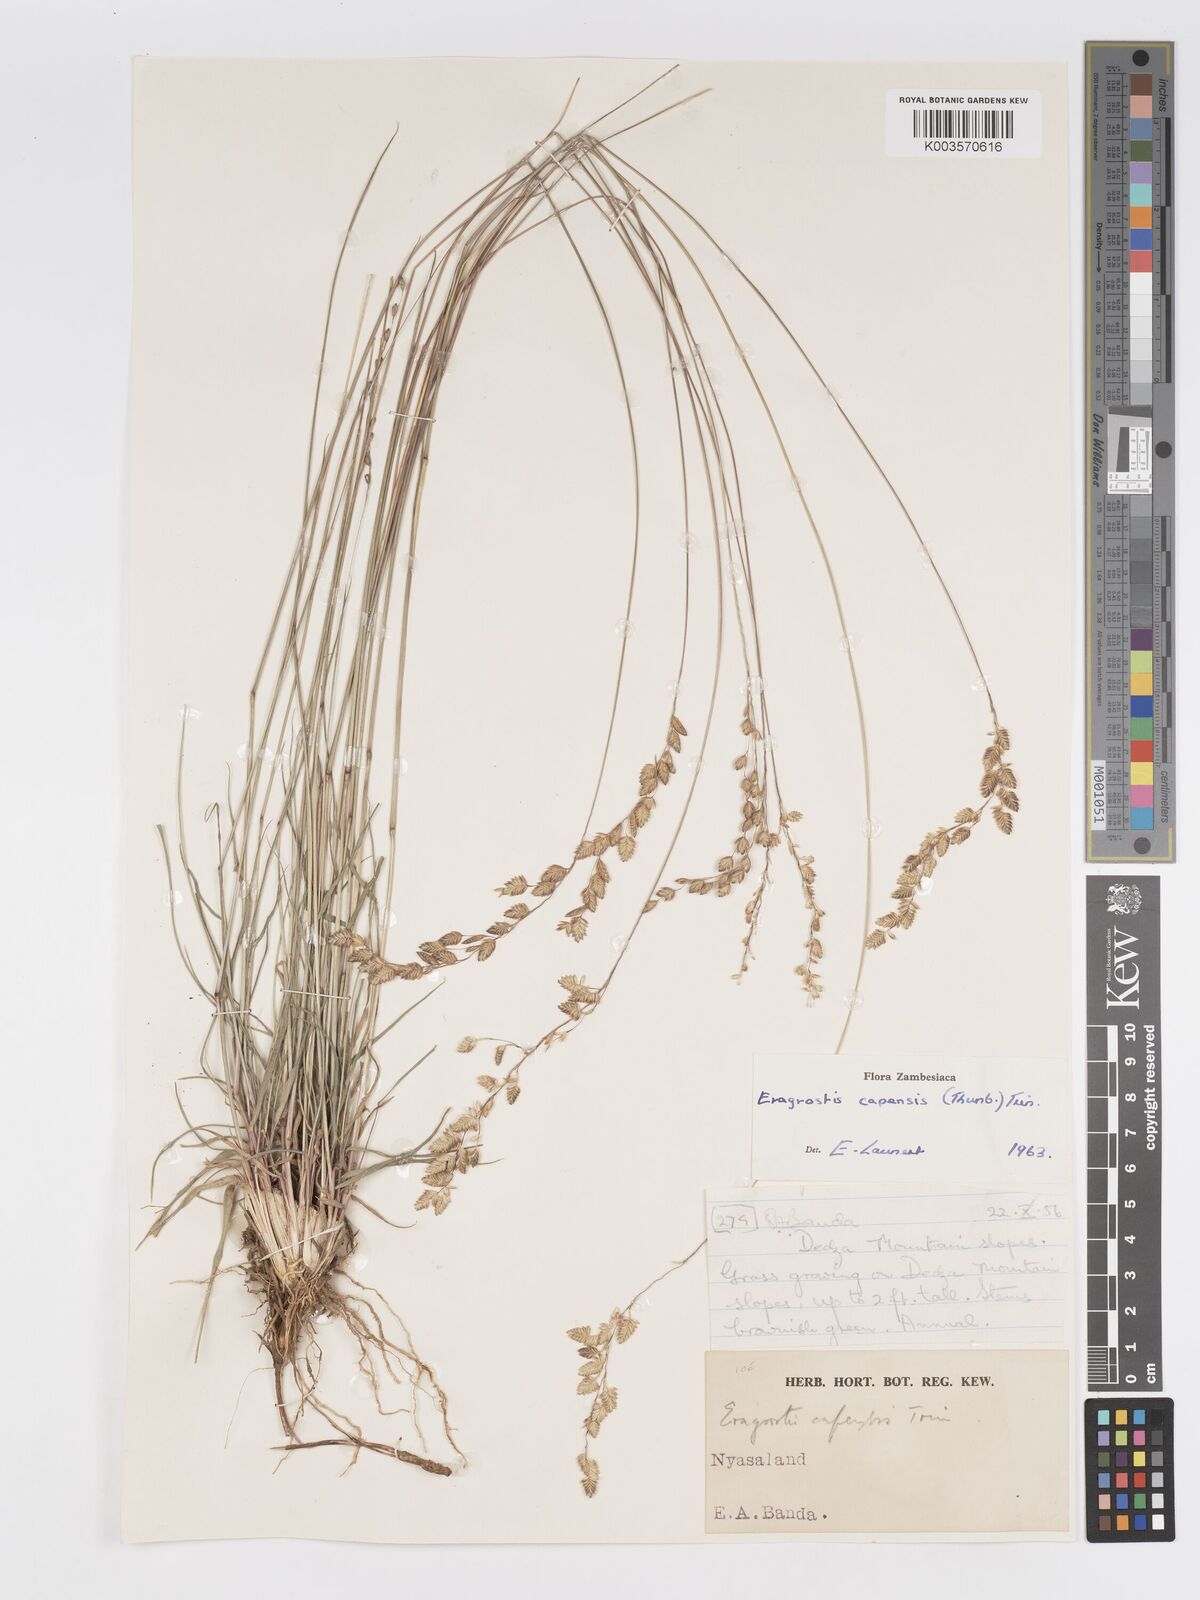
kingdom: Plantae
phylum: Tracheophyta
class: Liliopsida
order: Poales
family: Poaceae
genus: Eragrostis
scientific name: Eragrostis capensis
